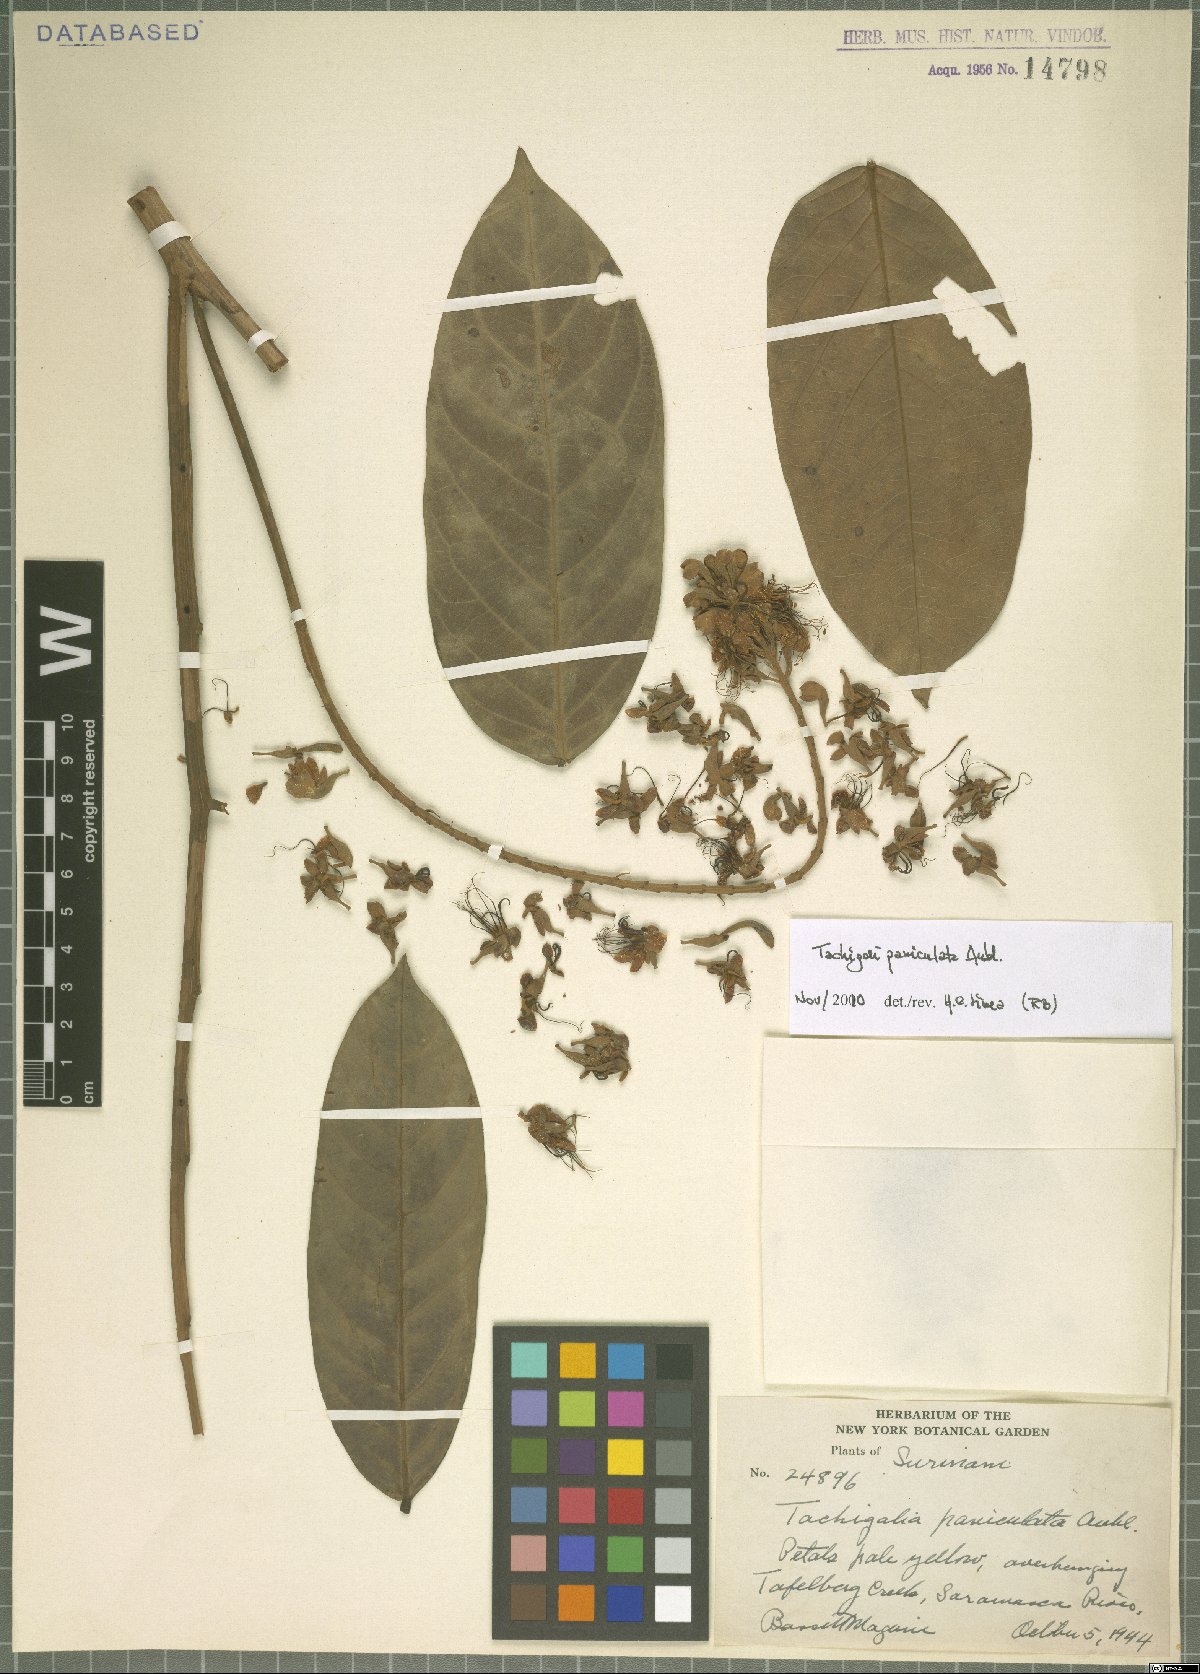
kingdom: Plantae
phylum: Tracheophyta
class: Magnoliopsida
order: Fabales
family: Fabaceae
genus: Tachigali
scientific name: Tachigali paniculata
